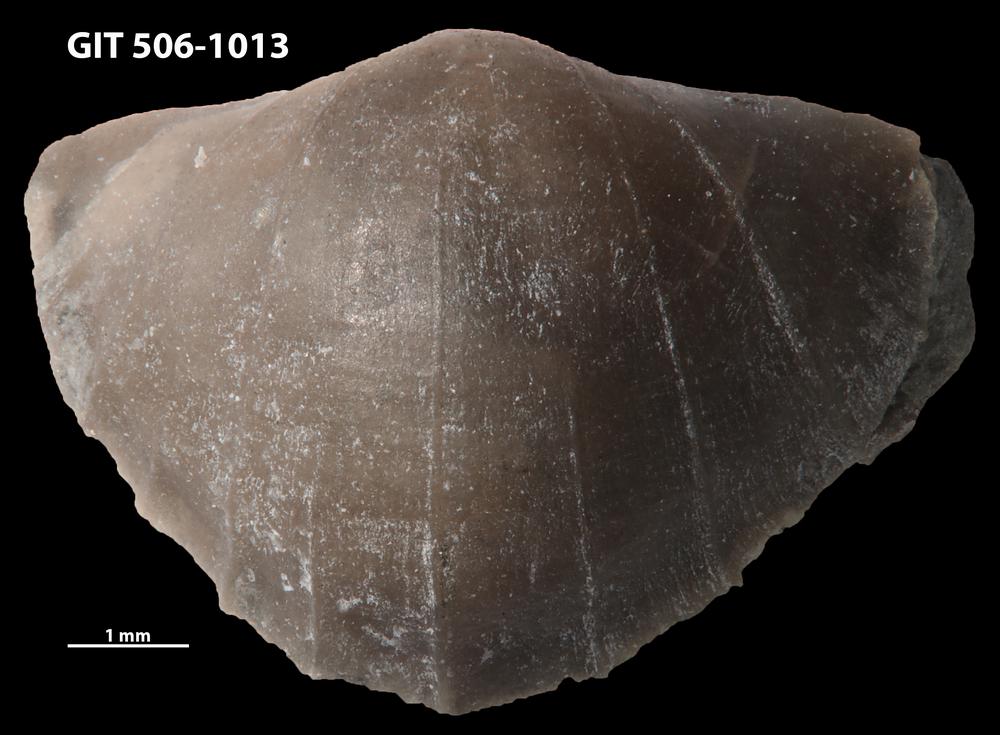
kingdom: Animalia
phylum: Brachiopoda
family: Leptellinidae
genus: Leangella
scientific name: Leangella Plectambonites scissa
